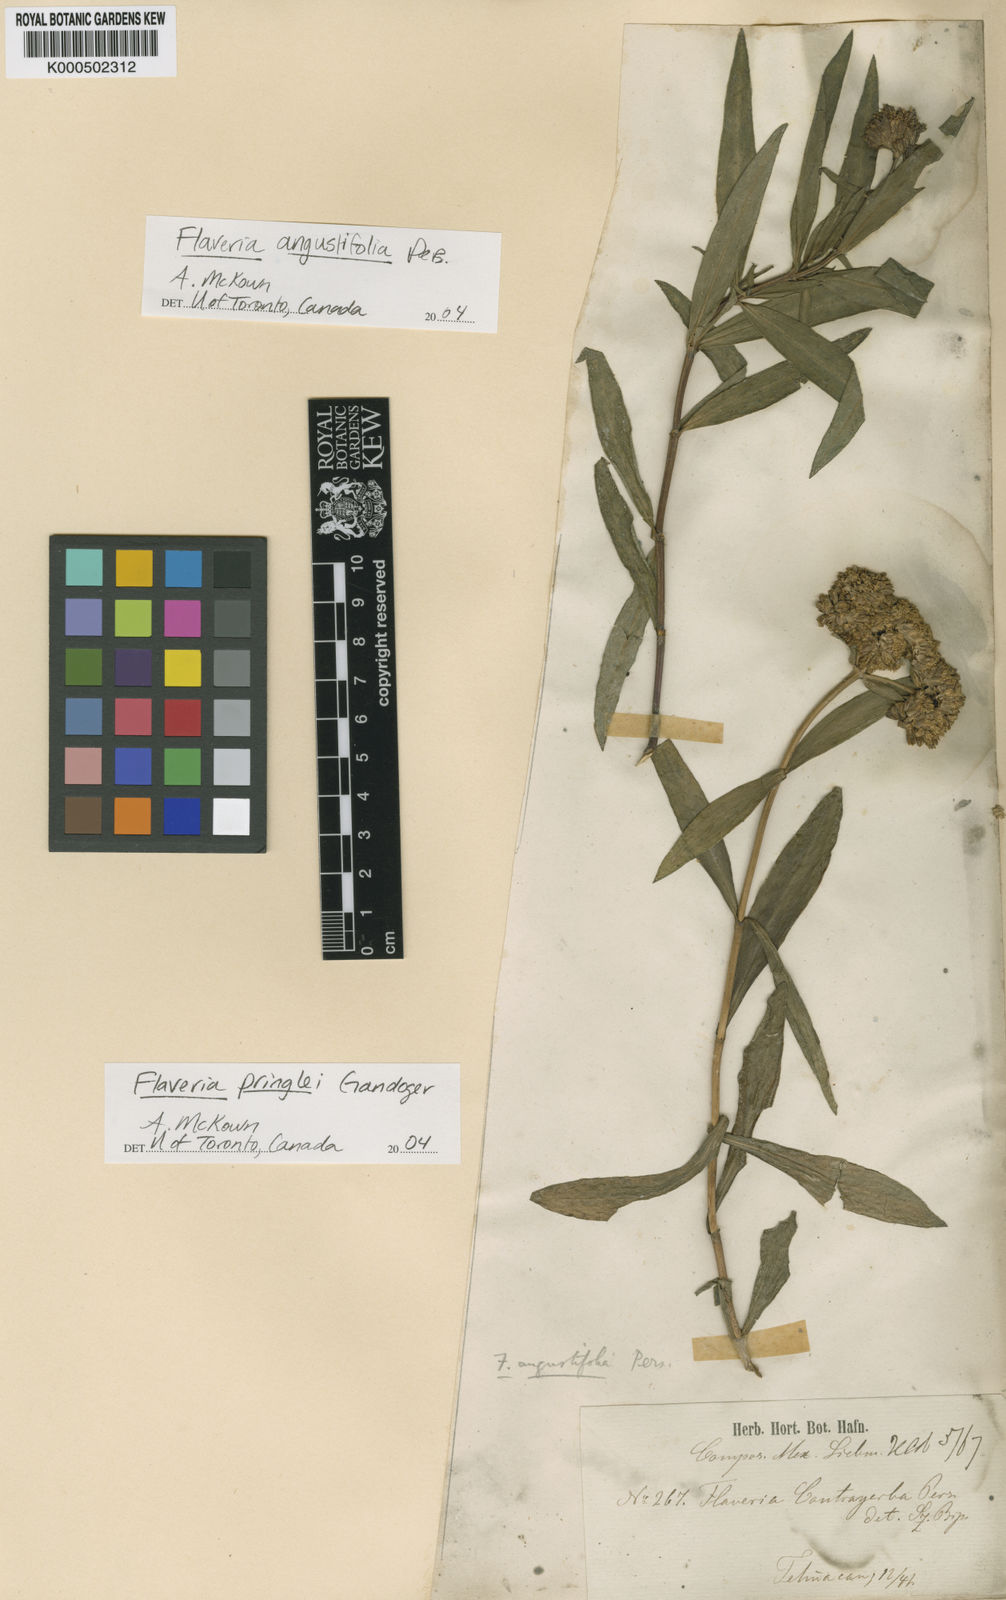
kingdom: Plantae
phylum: Tracheophyta
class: Magnoliopsida
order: Asterales
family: Asteraceae
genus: Flaveria
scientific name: Flaveria angustifolia
